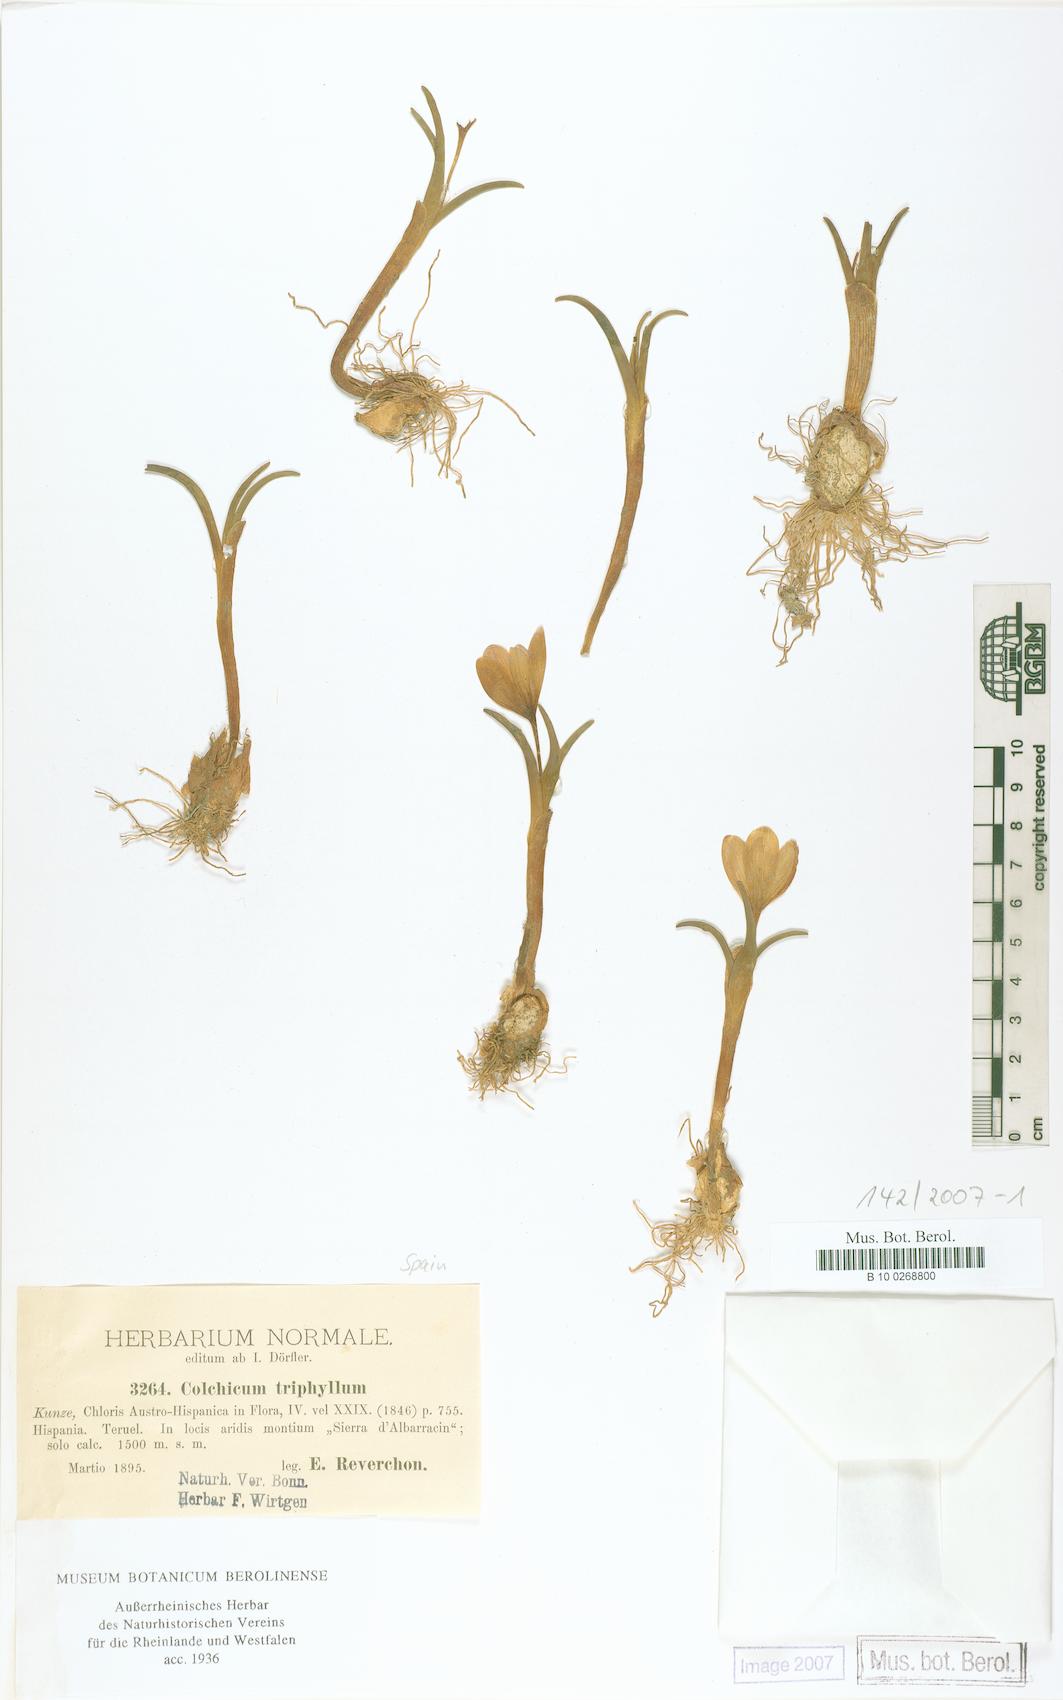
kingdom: Plantae
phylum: Tracheophyta
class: Liliopsida
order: Liliales
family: Colchicaceae
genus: Colchicum
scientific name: Colchicum triphyllum
